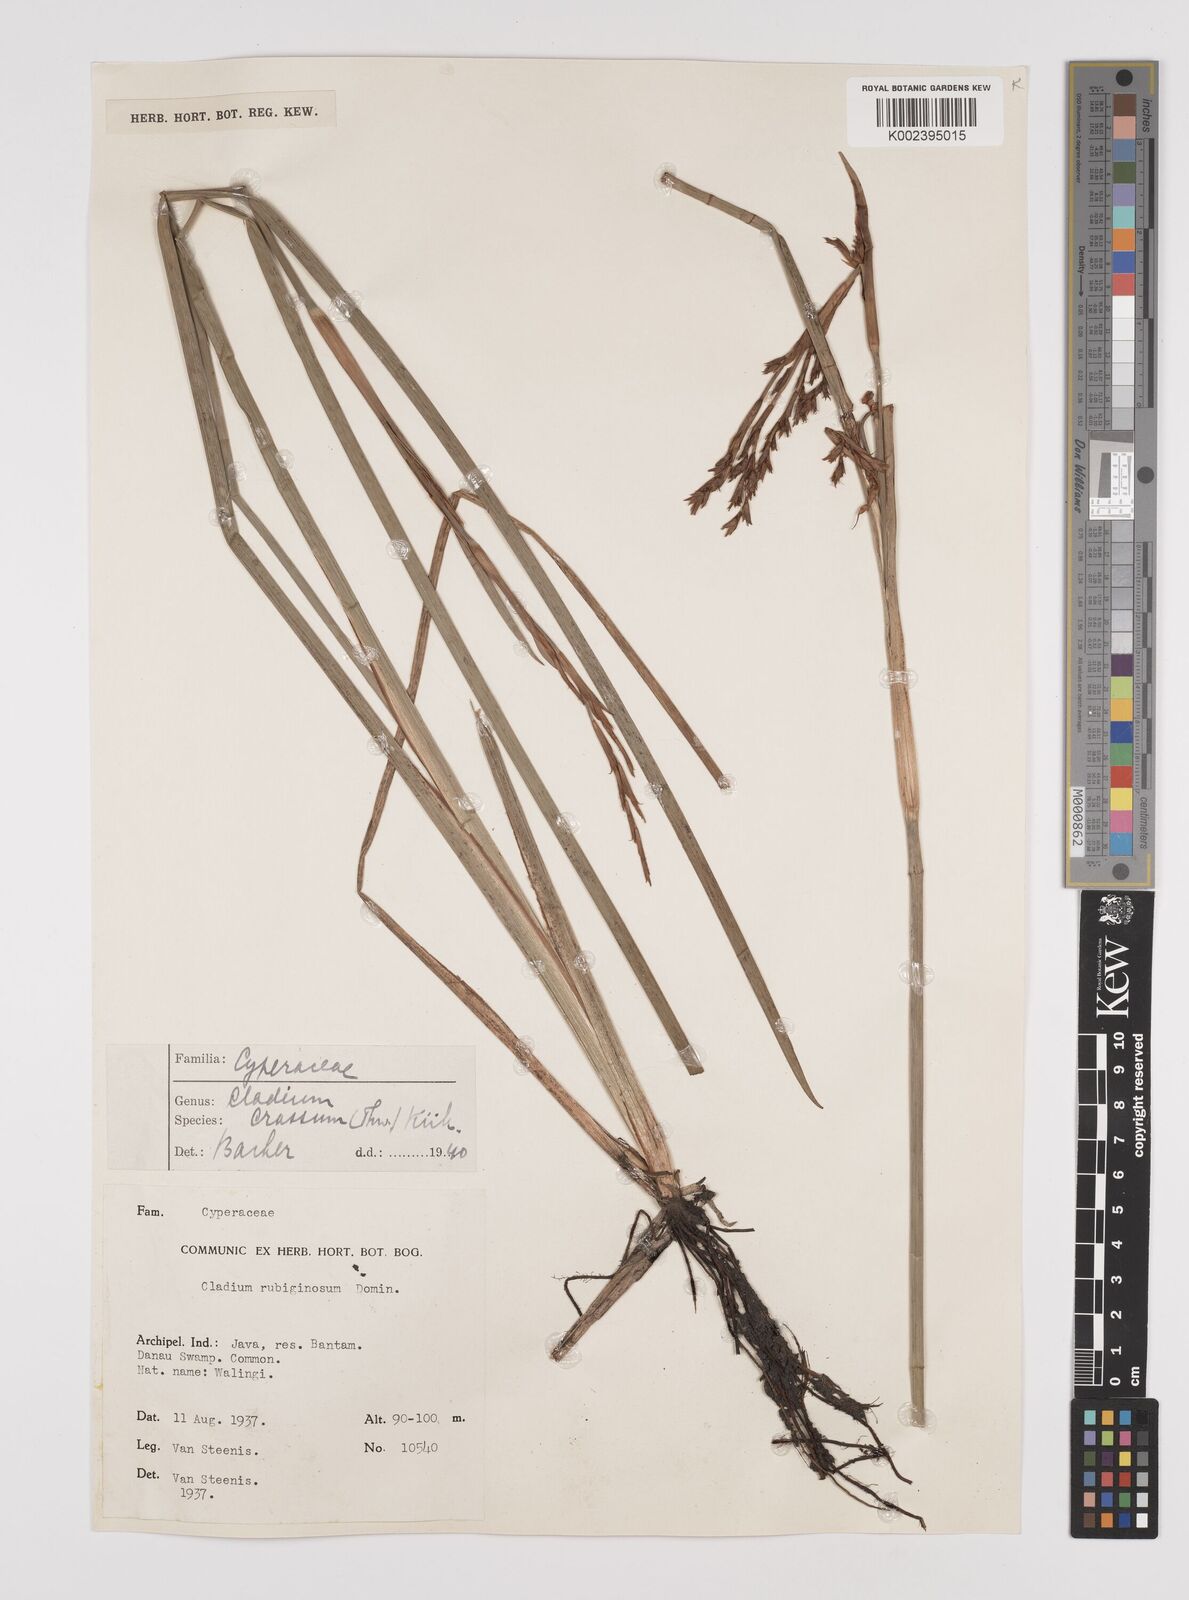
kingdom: Plantae
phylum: Tracheophyta
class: Liliopsida
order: Poales
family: Cyperaceae
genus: Machaerina
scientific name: Machaerina
